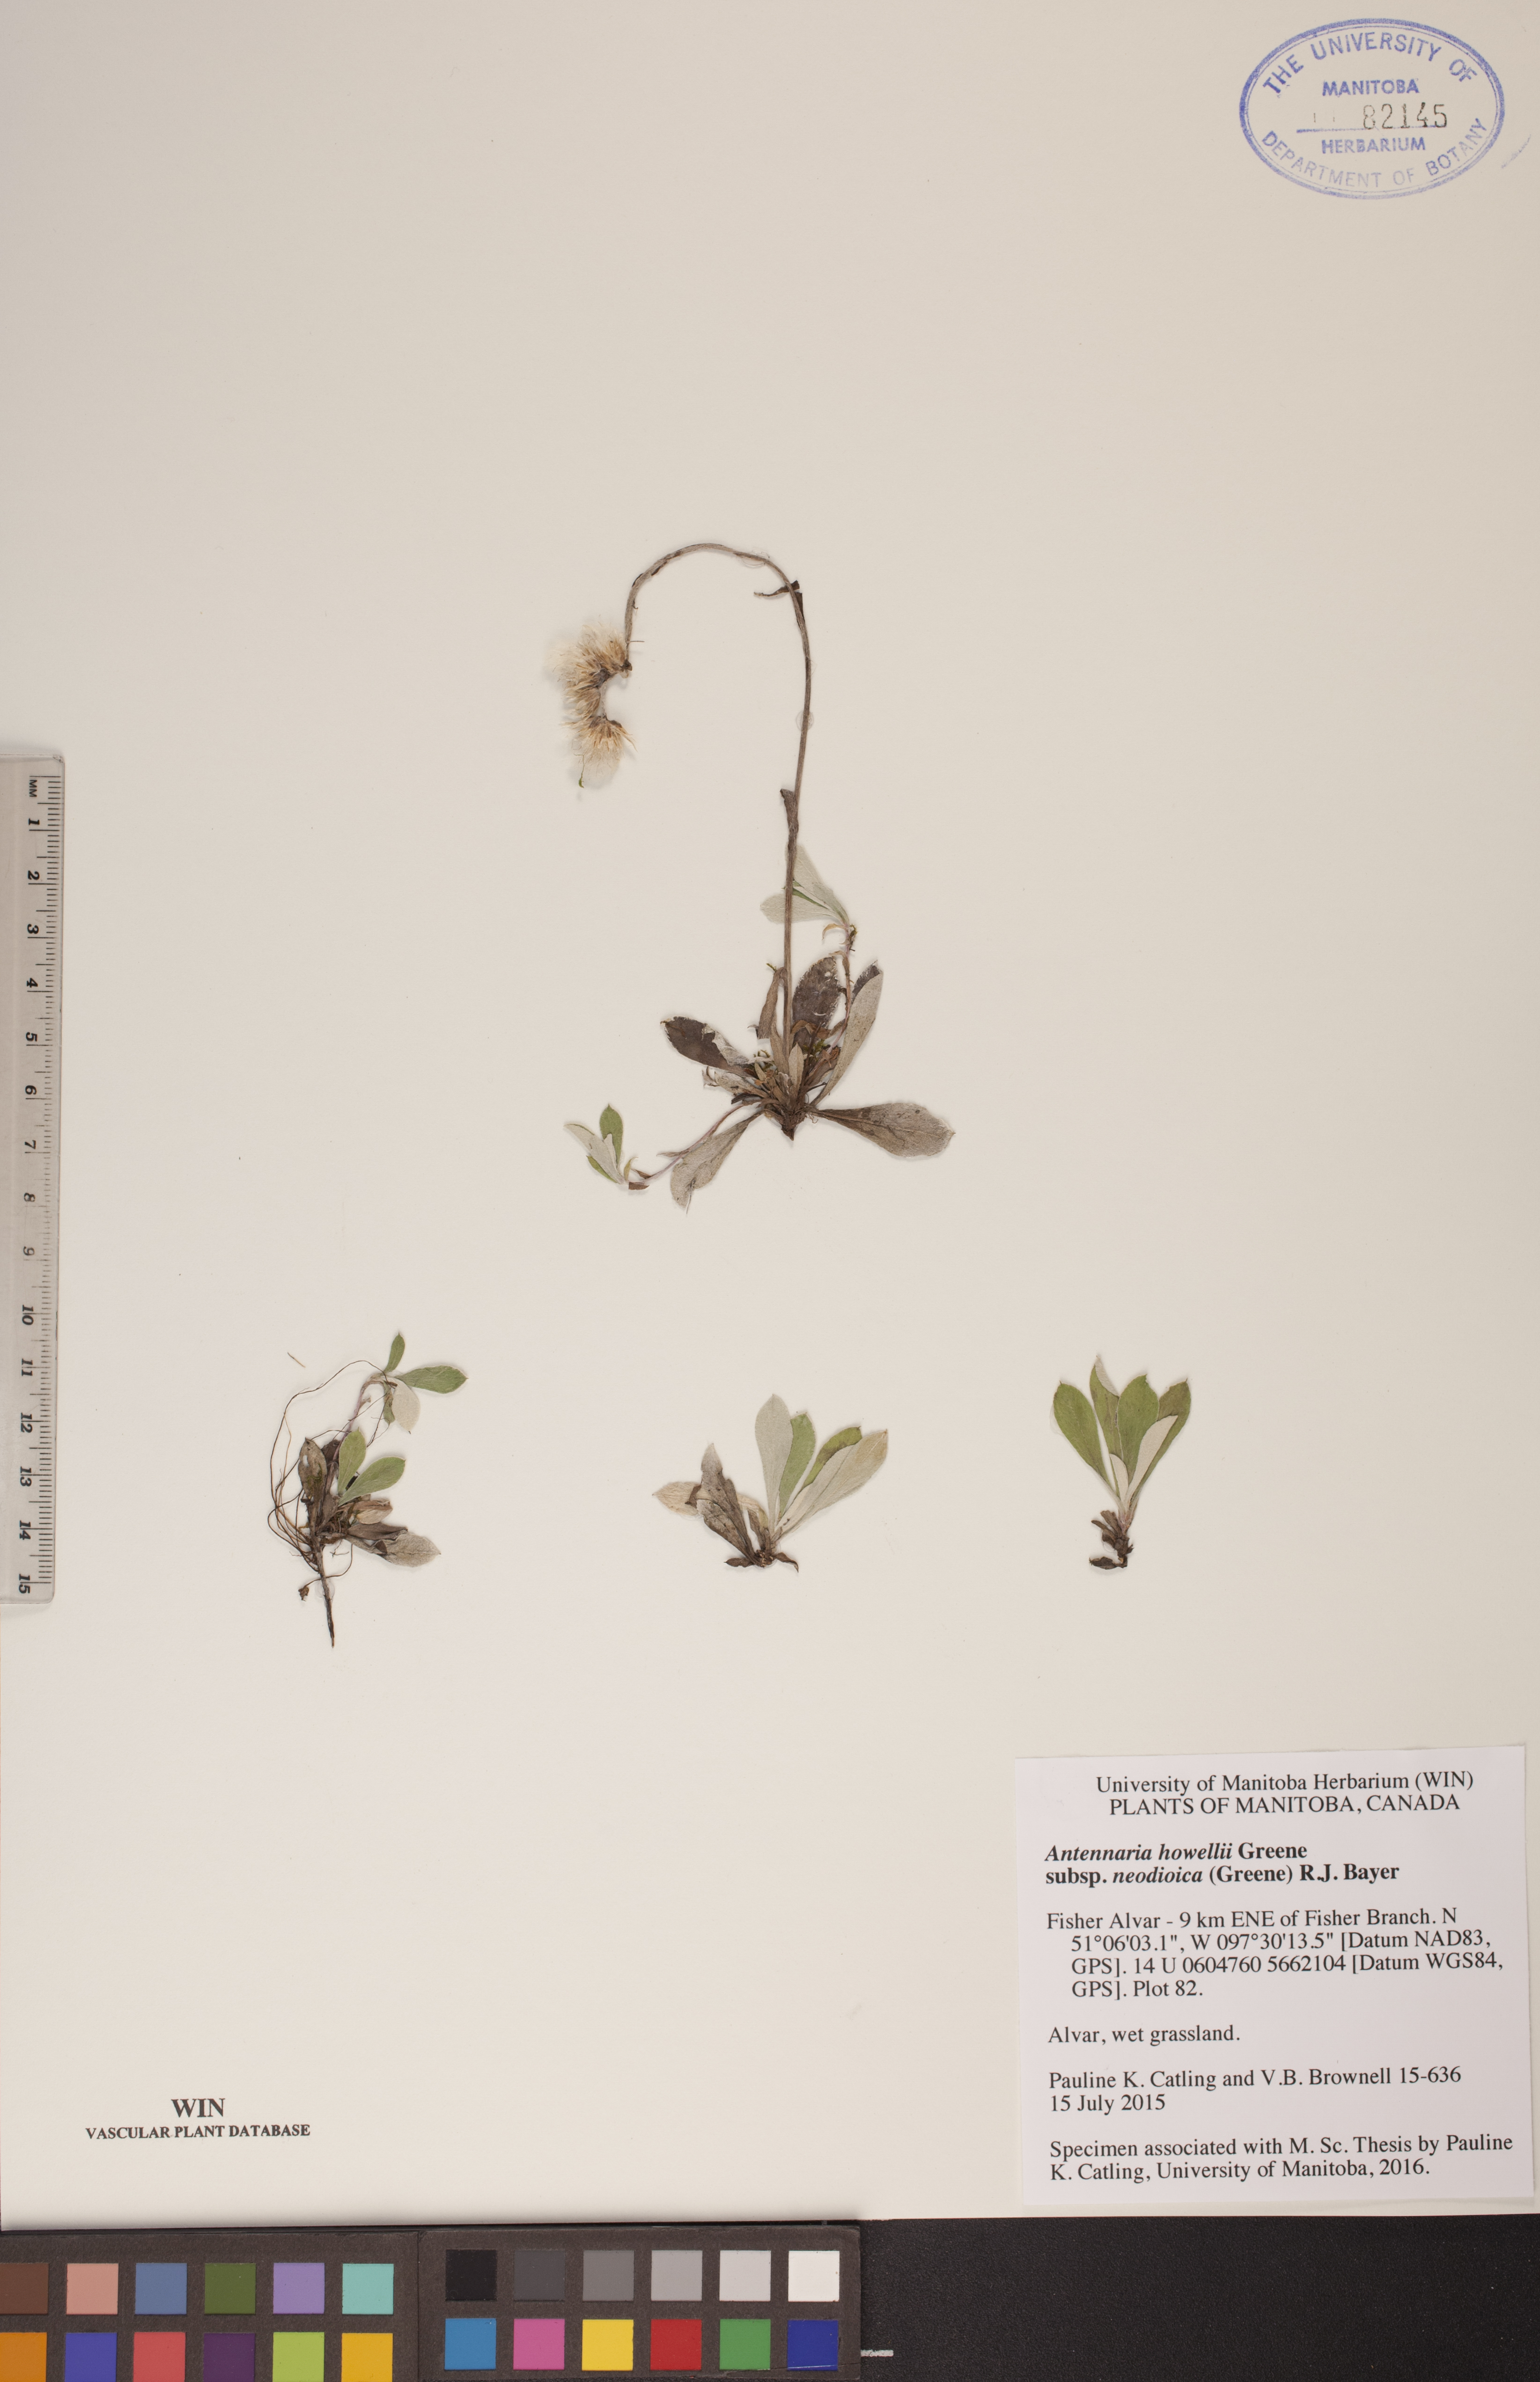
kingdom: Plantae
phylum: Tracheophyta
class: Magnoliopsida
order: Asterales
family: Asteraceae
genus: Antennaria
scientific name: Antennaria howellii
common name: Howell's pussytoes
